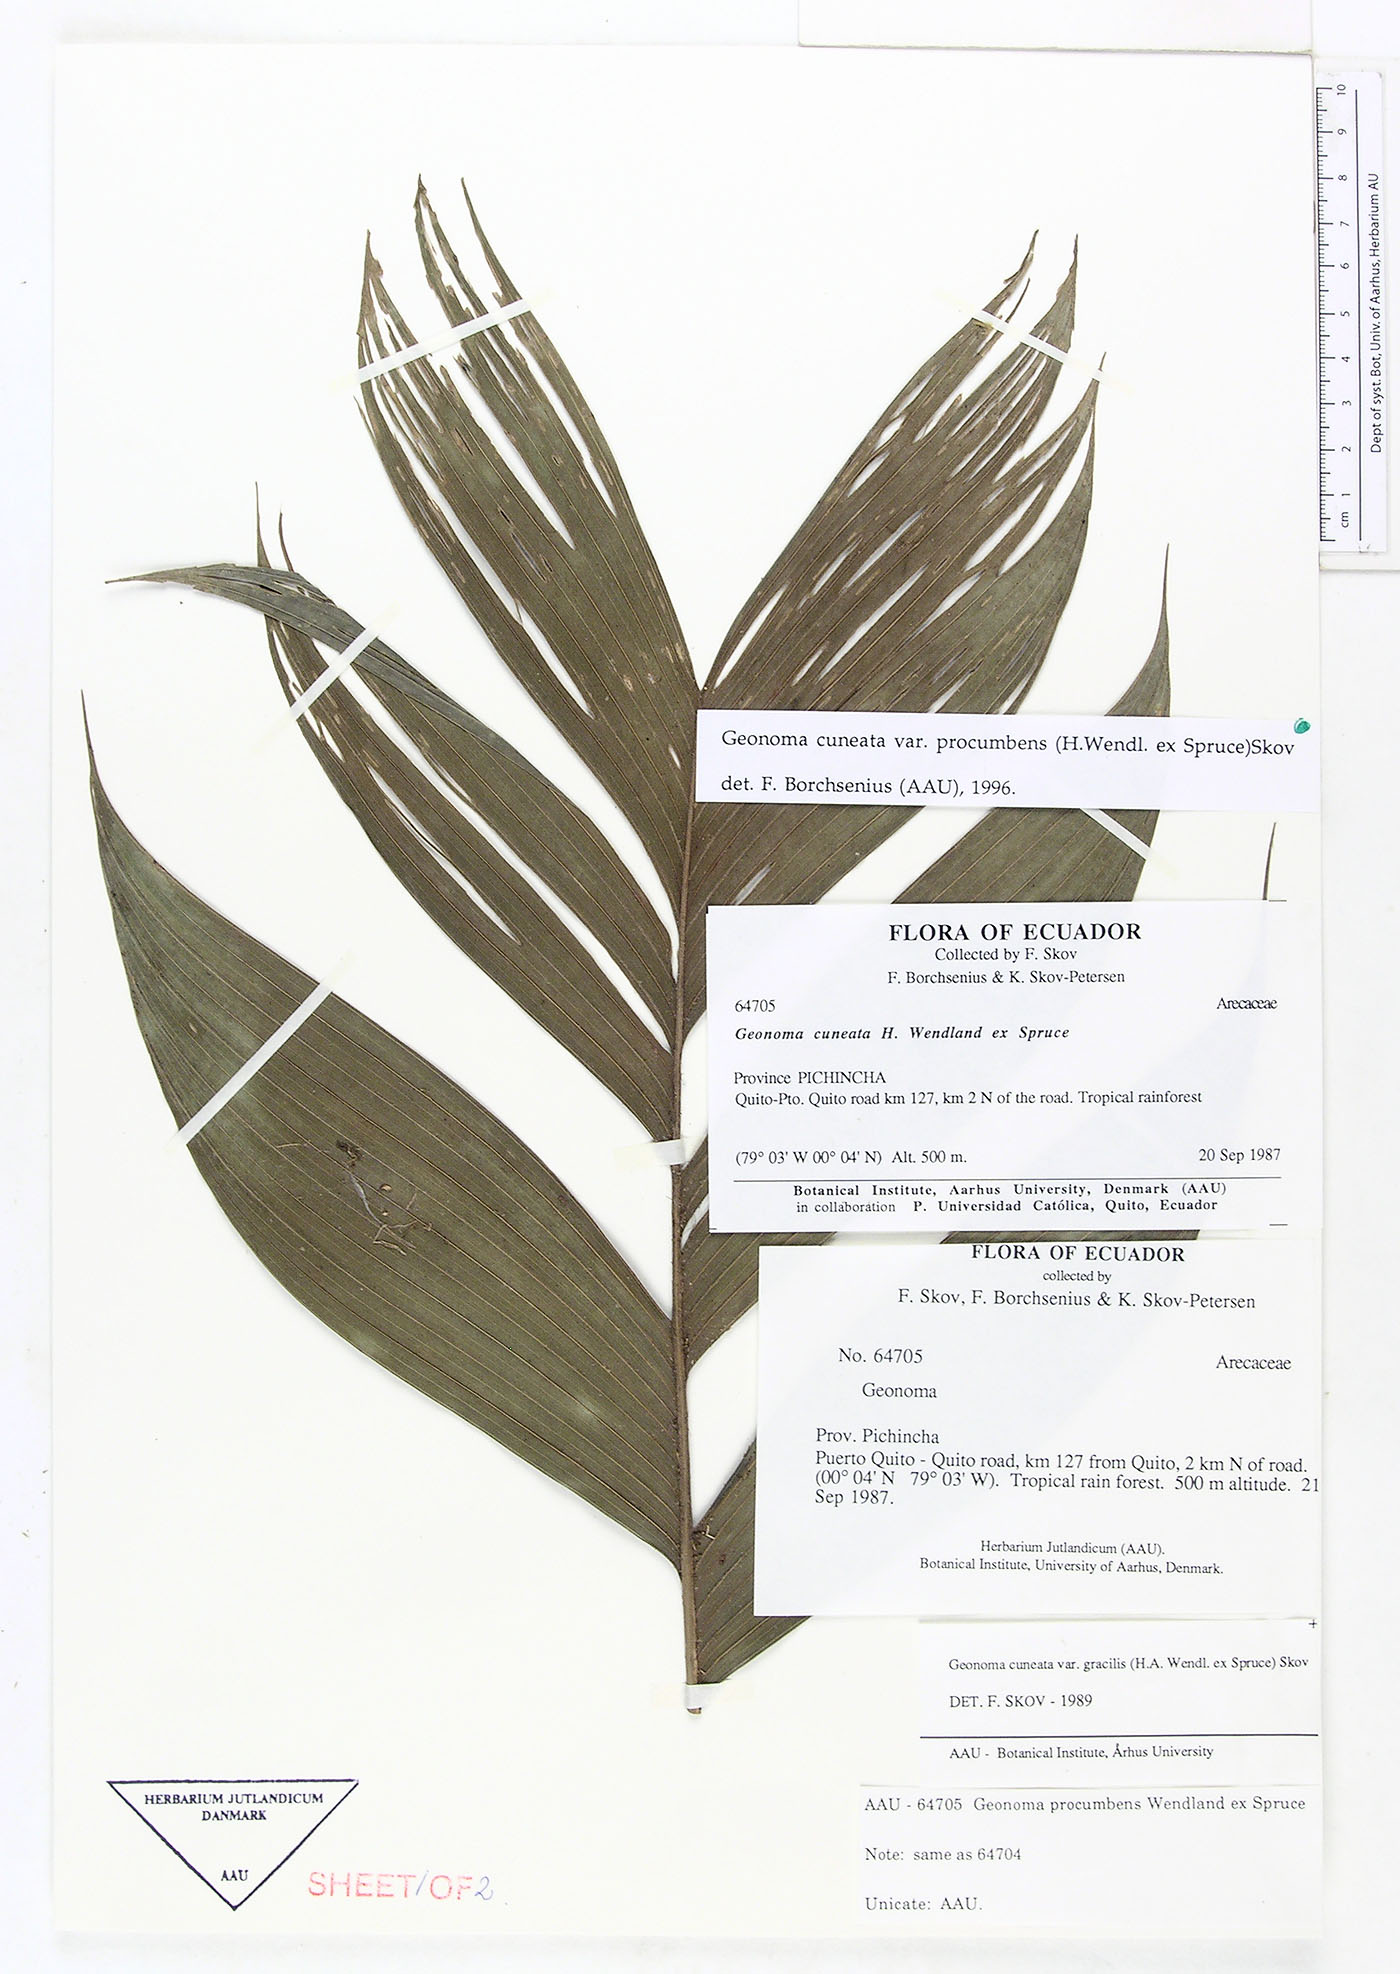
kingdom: Plantae
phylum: Tracheophyta
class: Liliopsida
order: Arecales
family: Arecaceae
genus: Geonoma
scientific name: Geonoma cuneata
